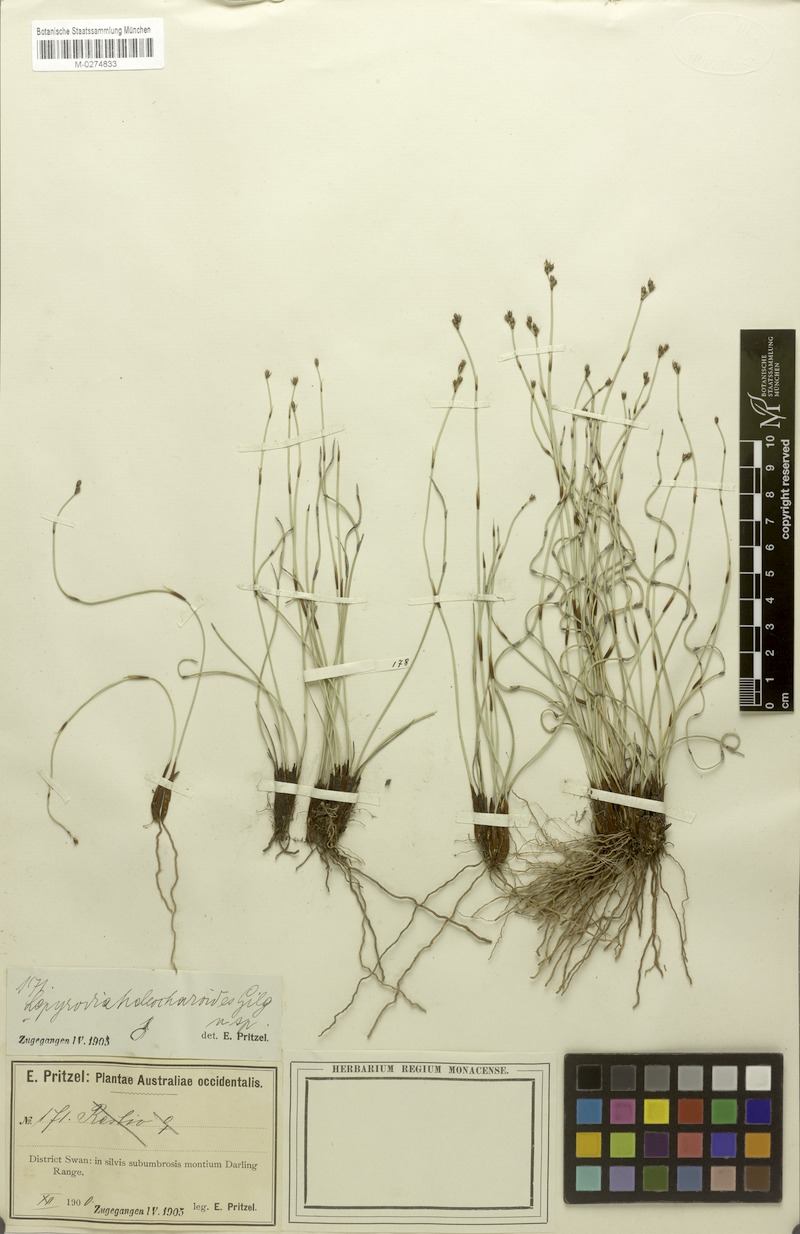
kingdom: Plantae
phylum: Tracheophyta
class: Liliopsida
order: Poales
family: Restionaceae
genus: Lepyrodia
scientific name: Lepyrodia heleocharoides
